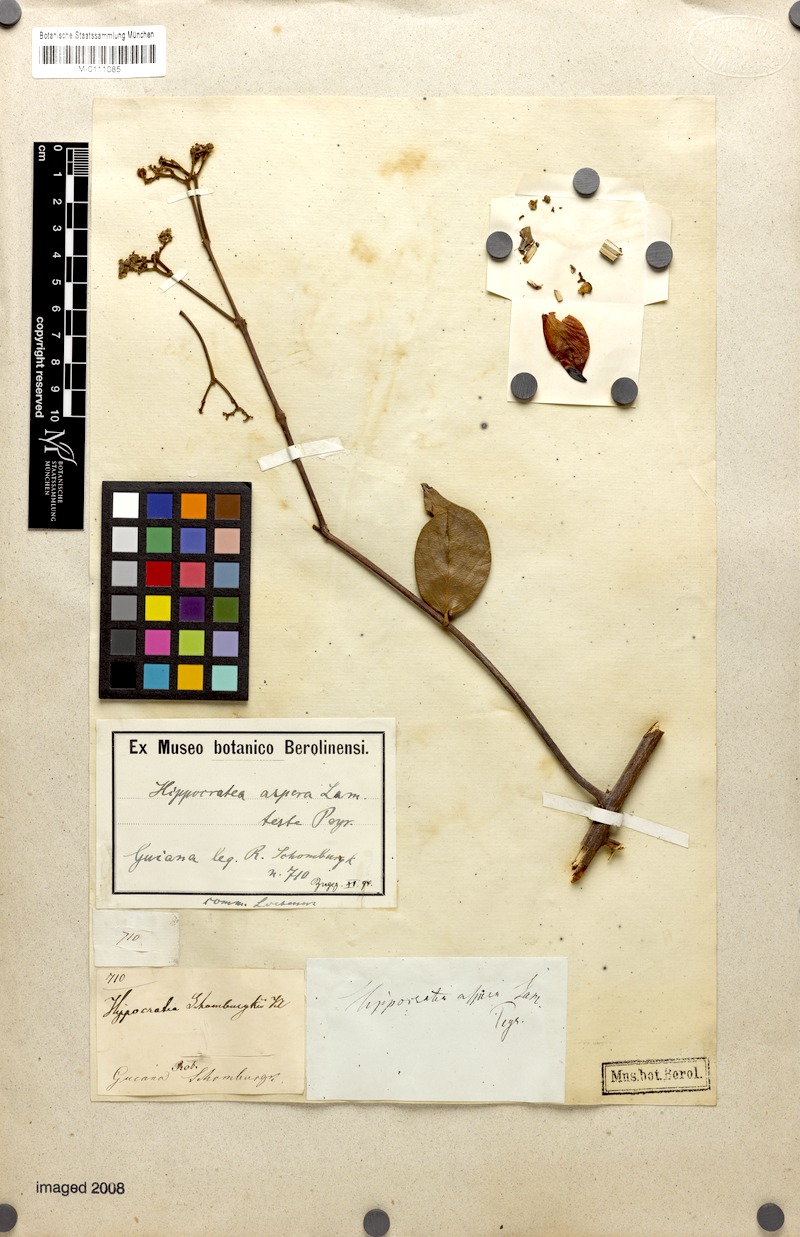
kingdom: Plantae
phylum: Tracheophyta
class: Magnoliopsida
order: Celastrales
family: Celastraceae
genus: Prionostemma
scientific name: Prionostemma aspera
